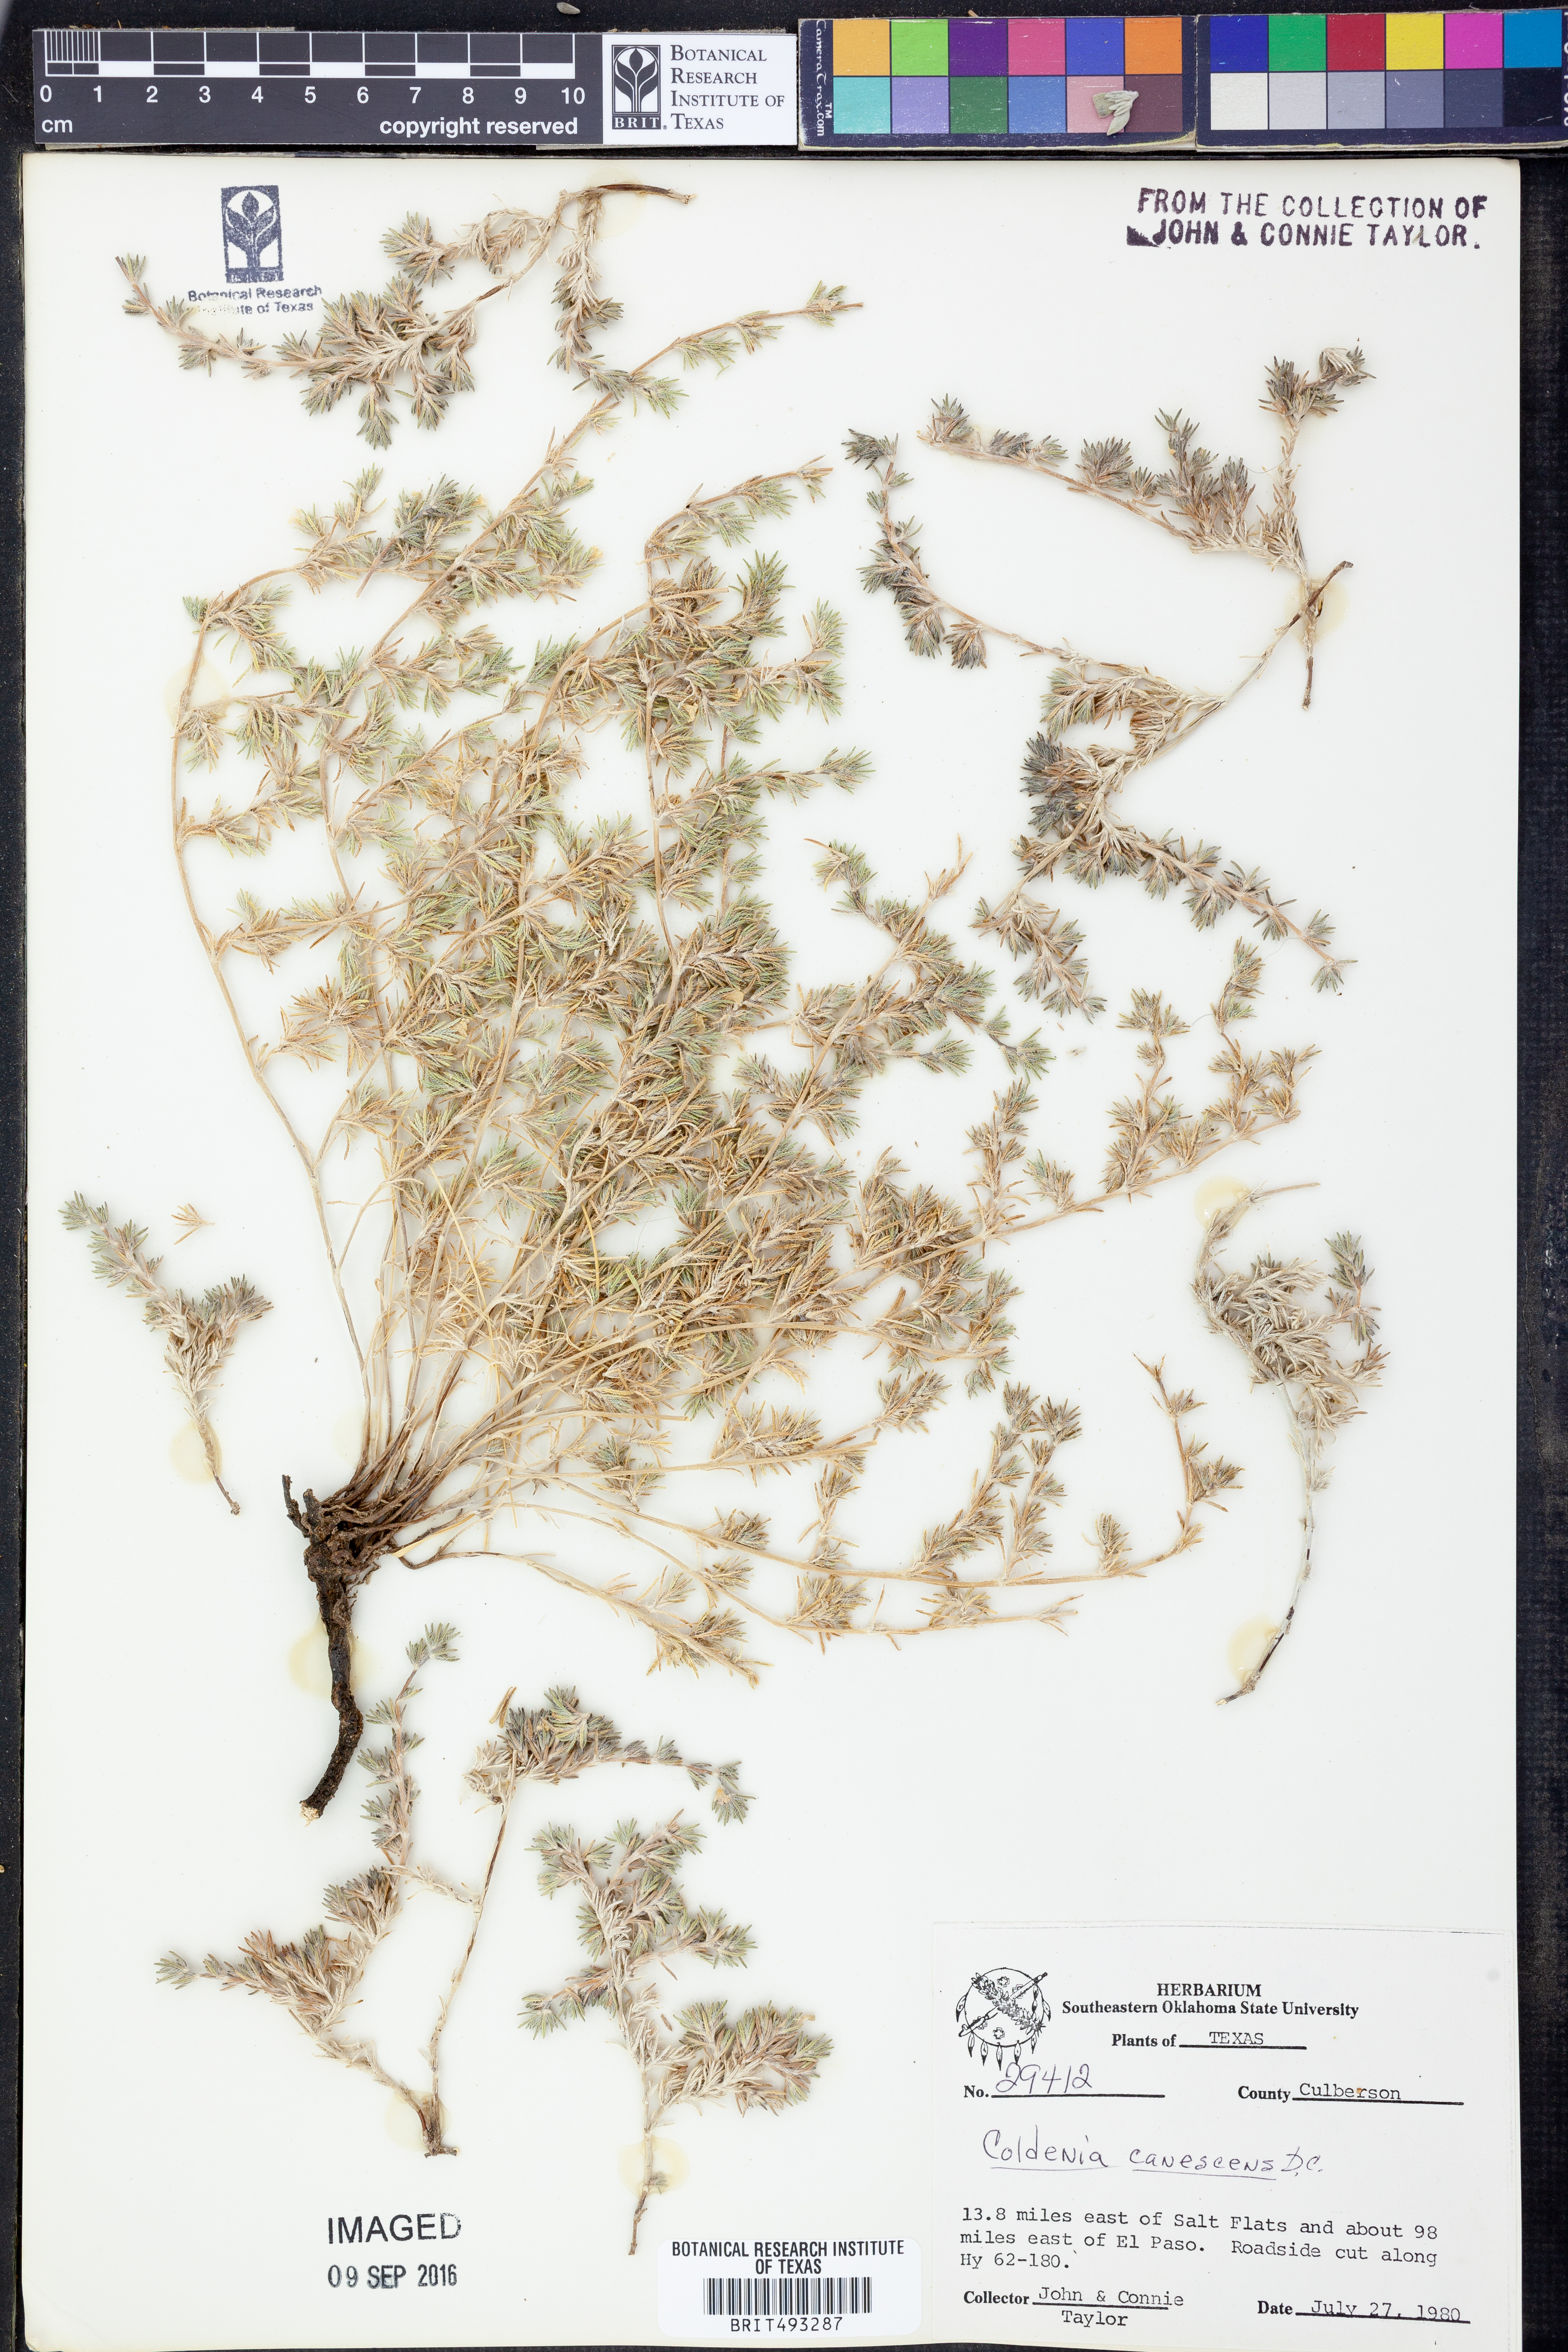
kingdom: Plantae
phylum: Tracheophyta
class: Magnoliopsida
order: Boraginales
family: Ehretiaceae
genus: Tiquilia
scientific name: Tiquilia canescens
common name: Hairy tiquilia
